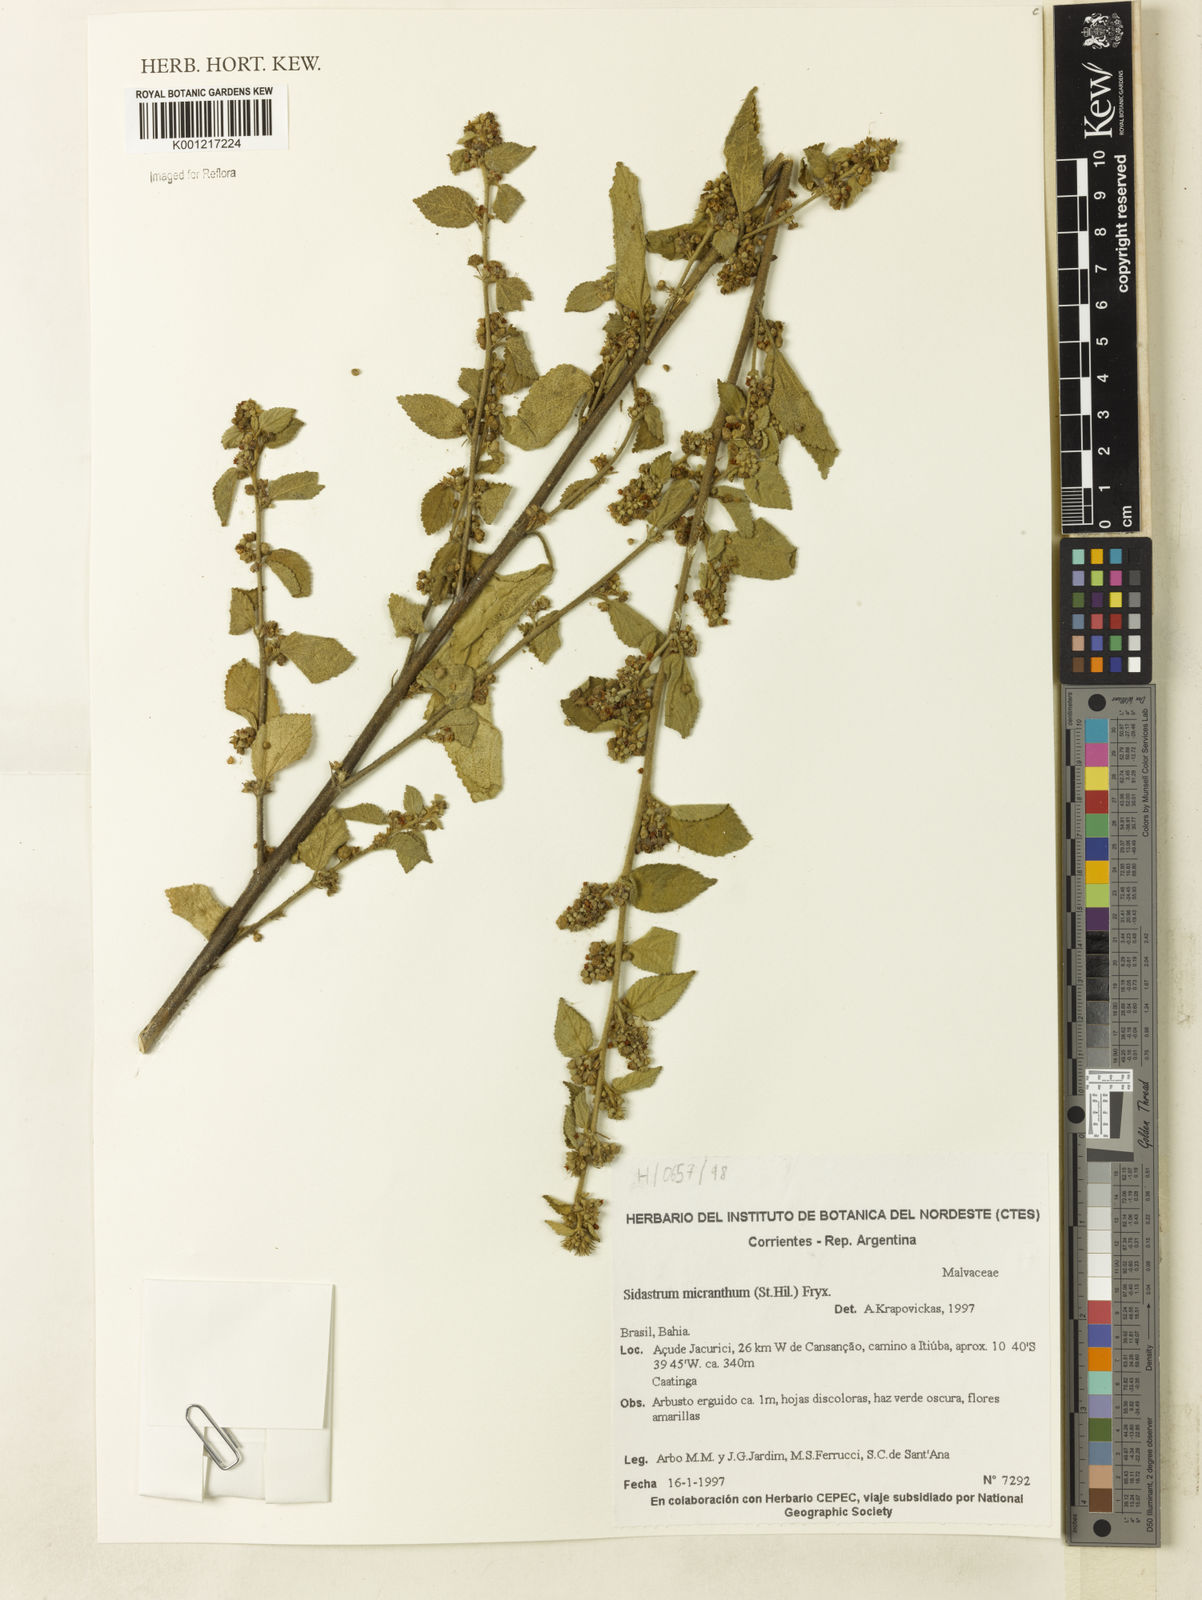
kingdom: Plantae
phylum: Tracheophyta
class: Magnoliopsida
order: Malvales
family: Malvaceae
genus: Sidastrum
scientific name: Sidastrum micranthum
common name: Dainty sandmallow
